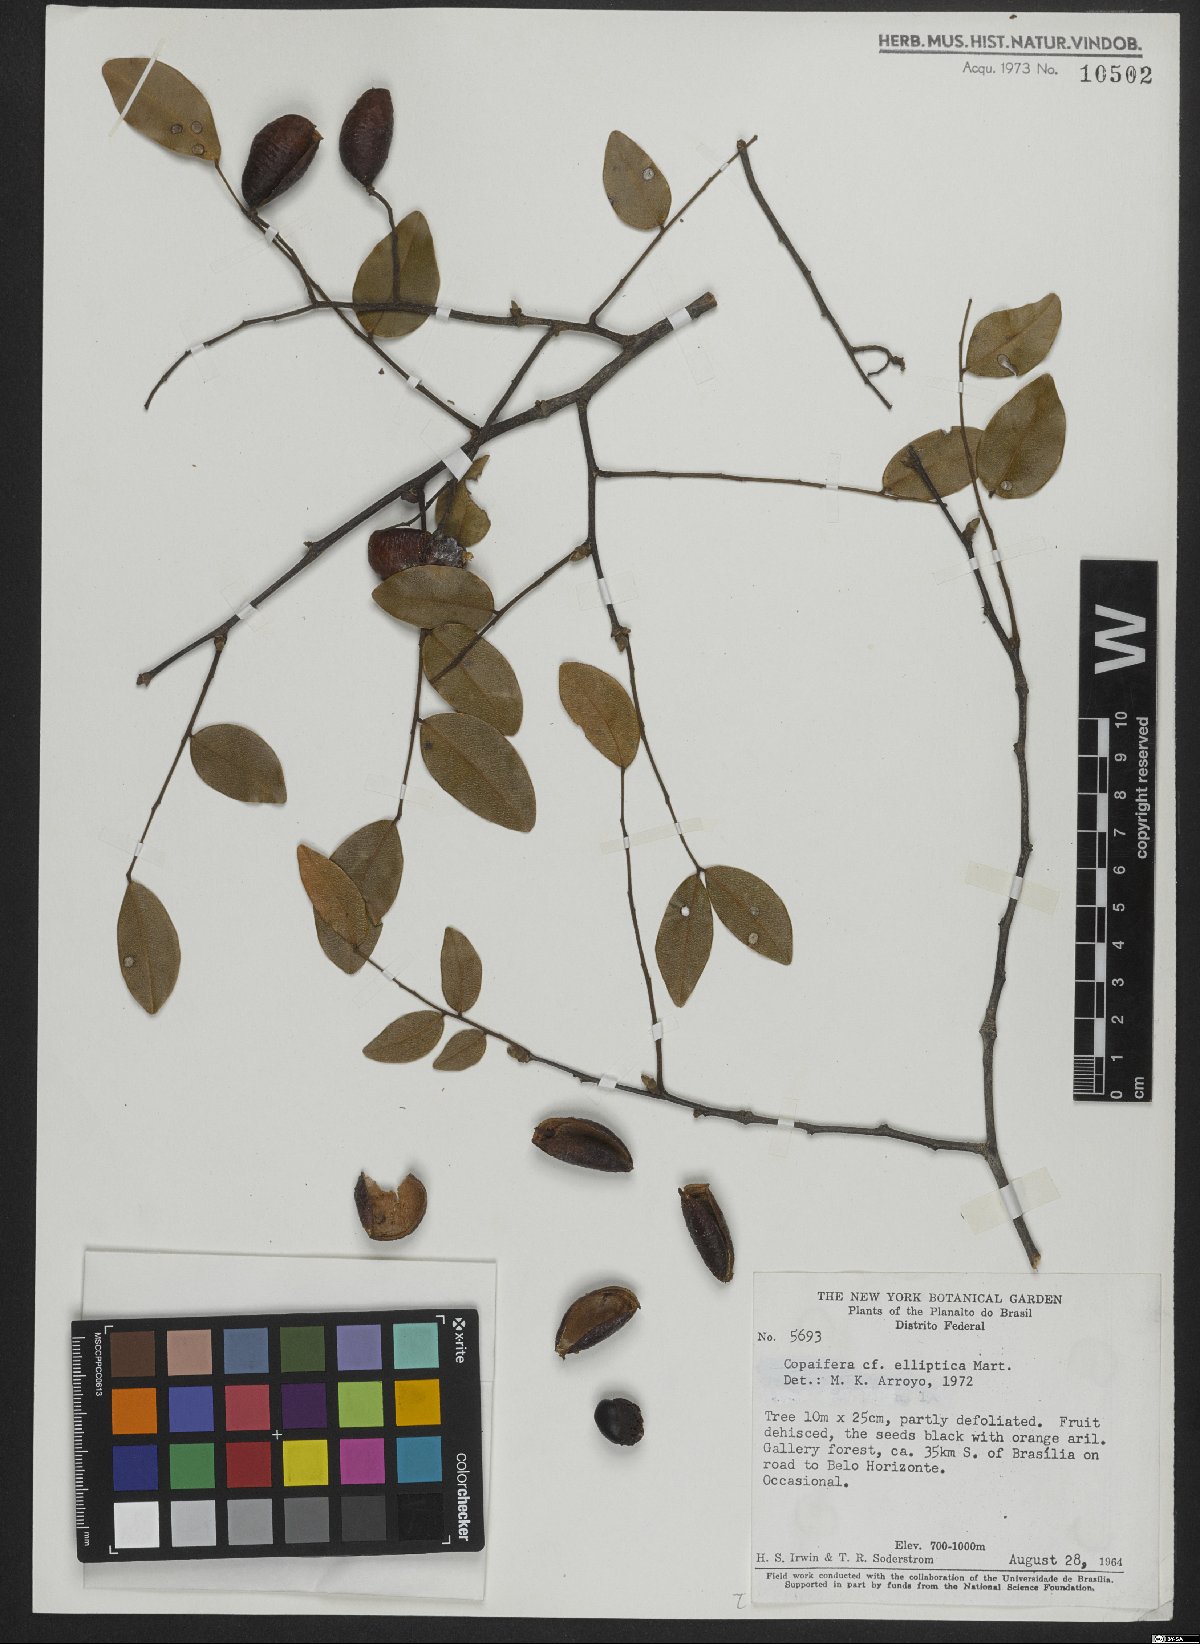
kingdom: Plantae
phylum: Tracheophyta
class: Magnoliopsida
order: Fabales
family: Fabaceae
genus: Copaifera
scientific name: Copaifera elliptica
